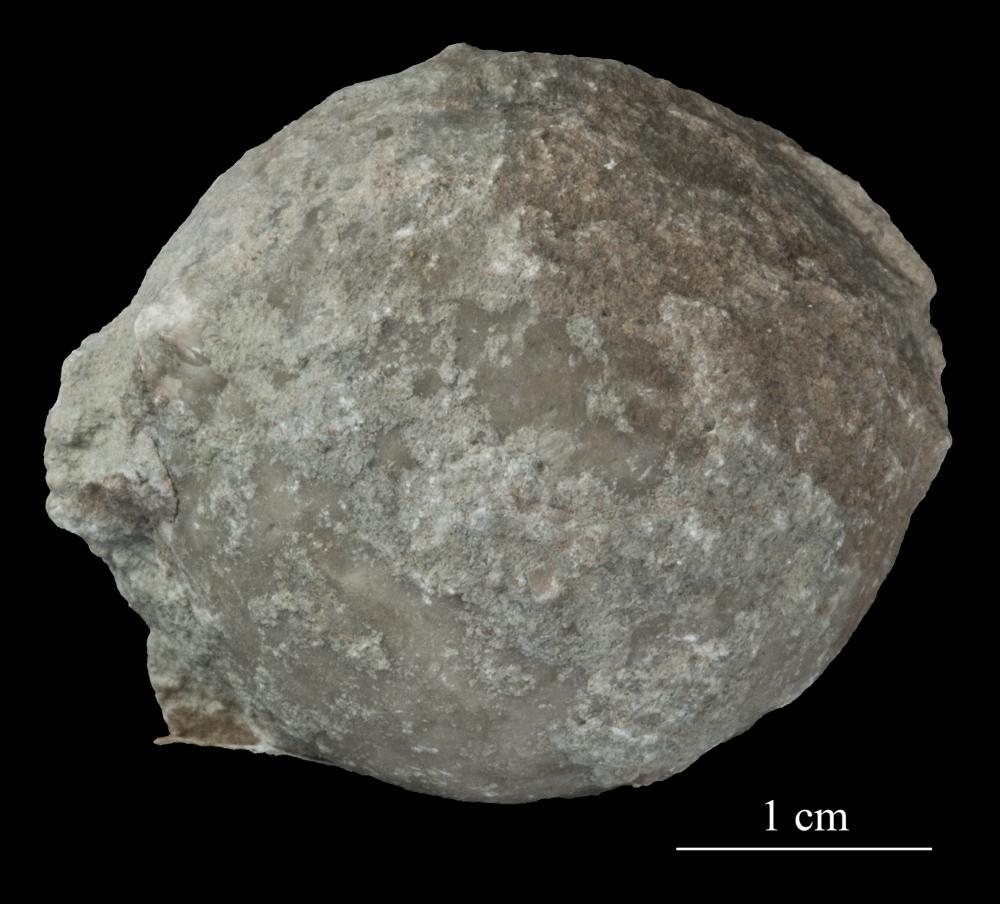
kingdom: Animalia
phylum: Echinodermata
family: Echinosphaeritidae
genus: Echinosphaerites
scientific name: Echinosphaerites Echinus aurantium
